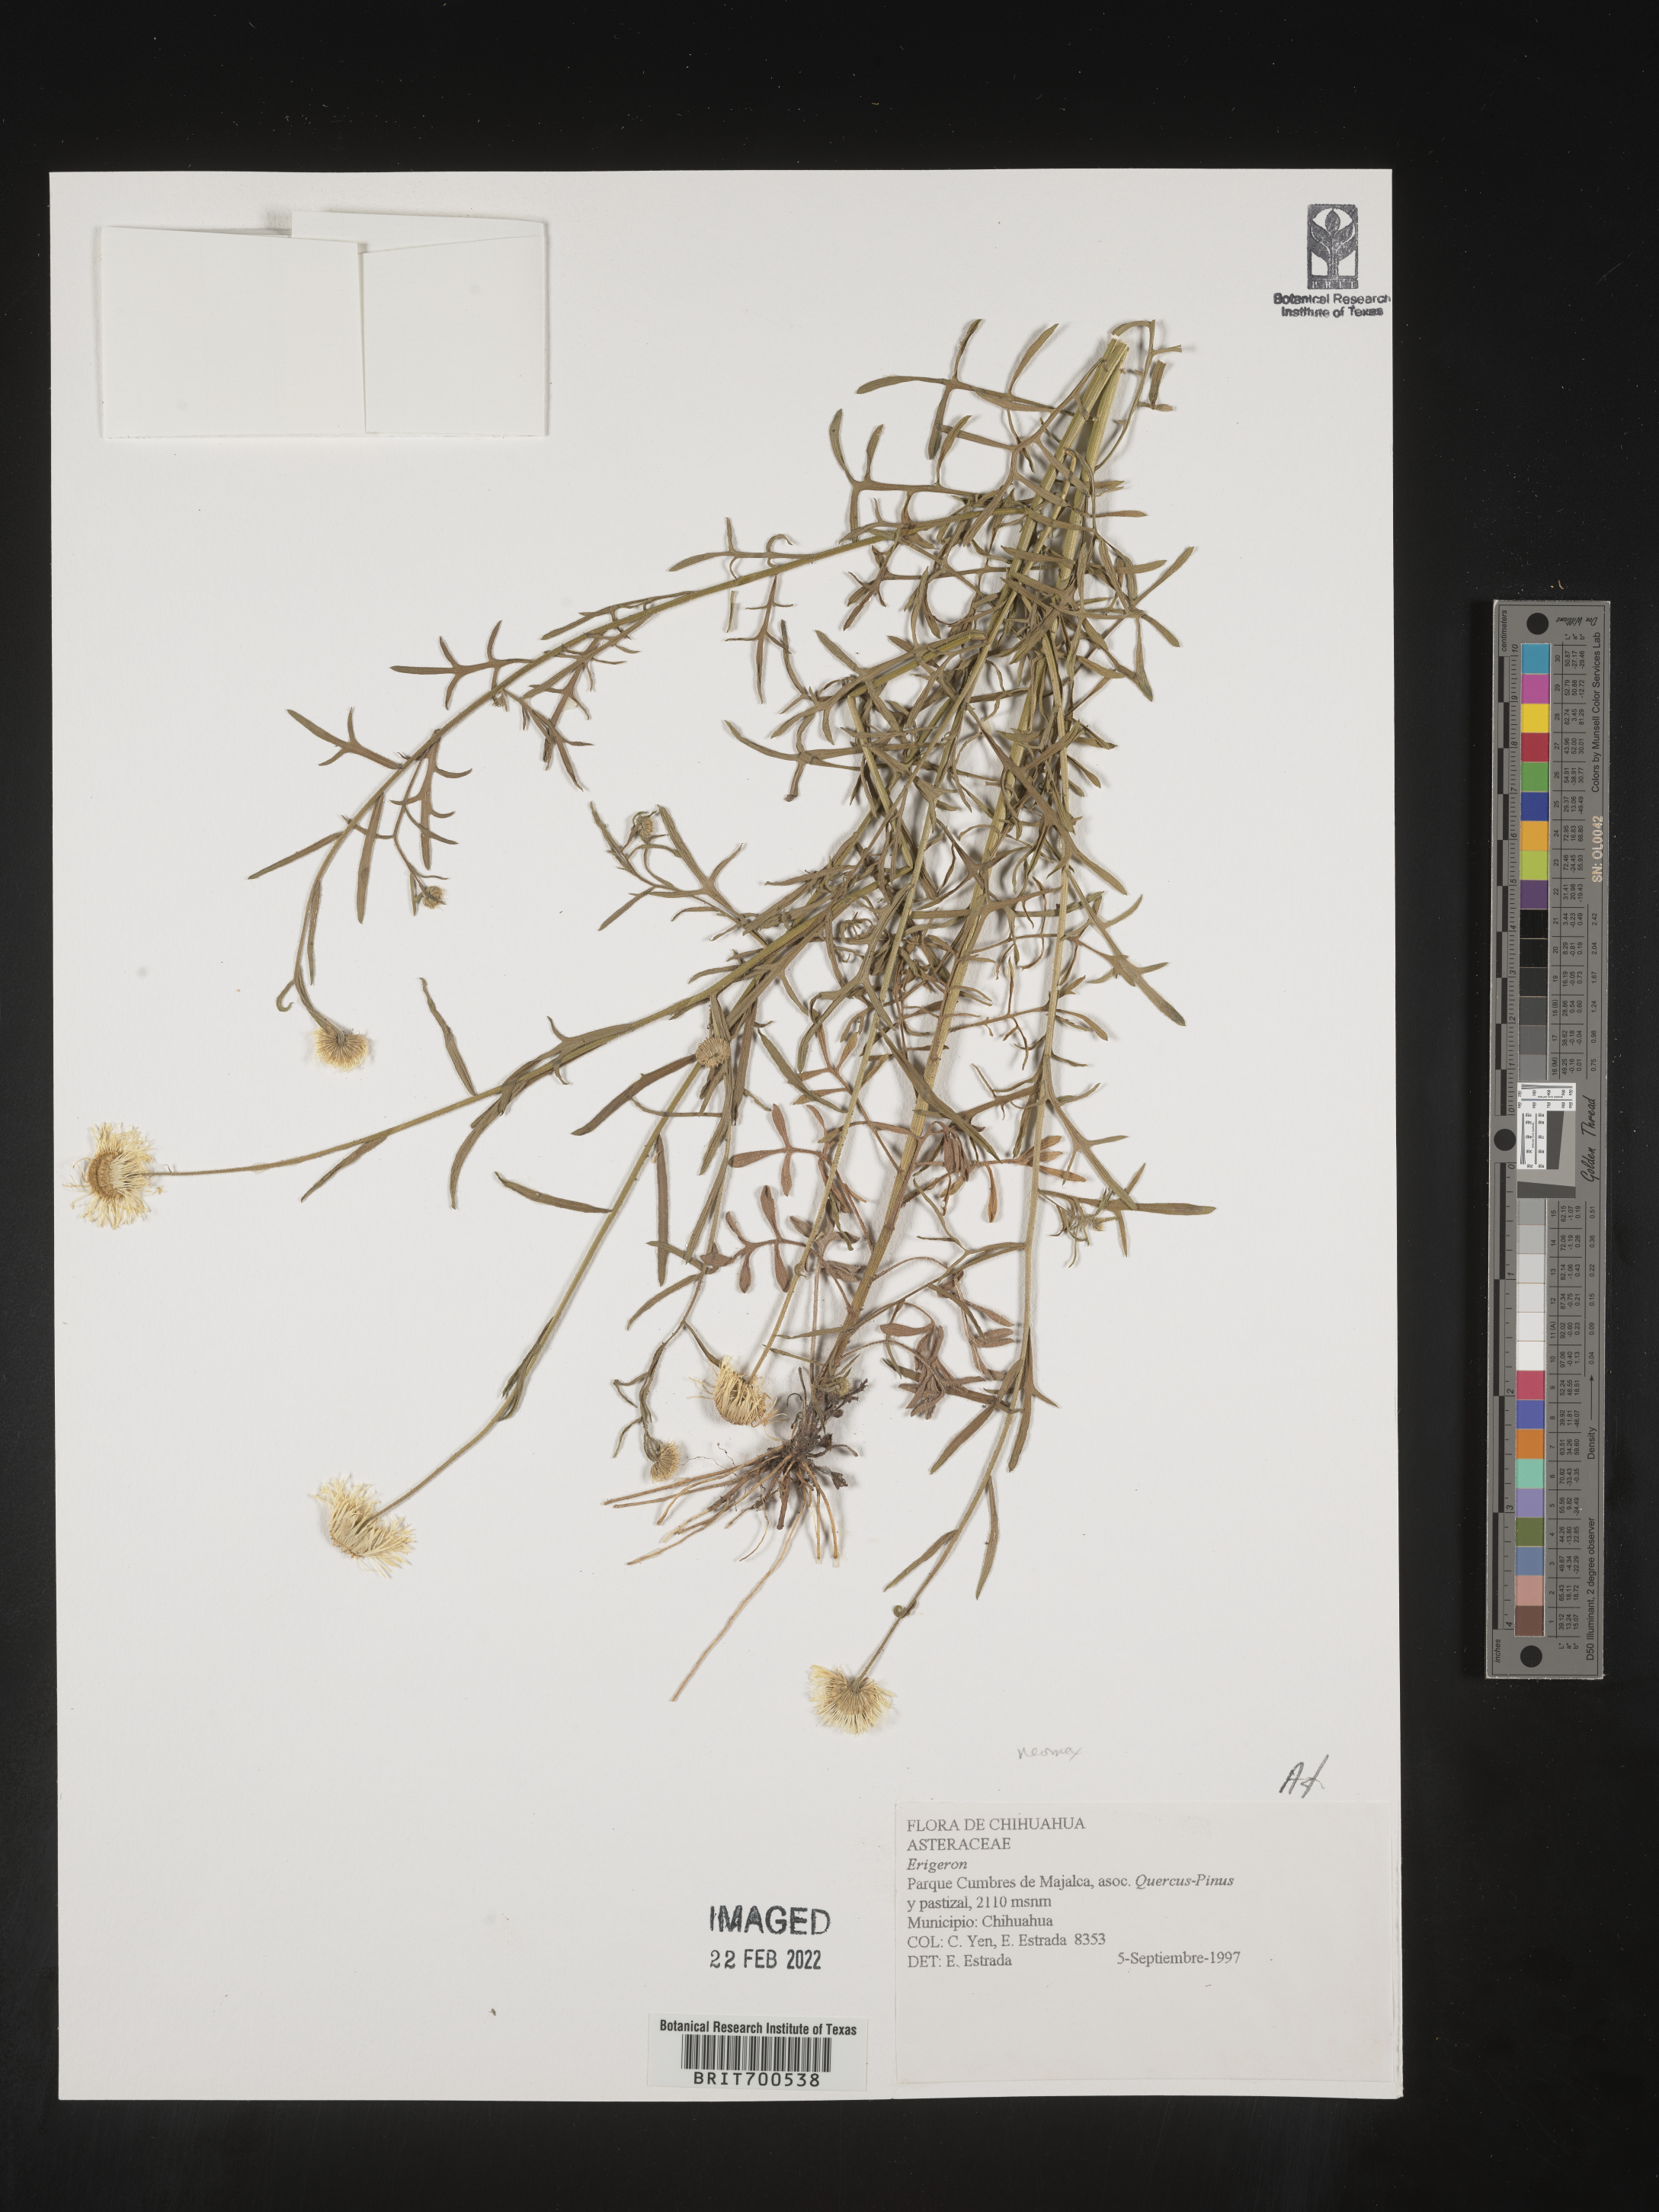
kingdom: Plantae
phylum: Tracheophyta
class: Magnoliopsida
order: Asterales
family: Asteraceae
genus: Erigeron
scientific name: Erigeron neomexicanus
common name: New mexico fleabane
